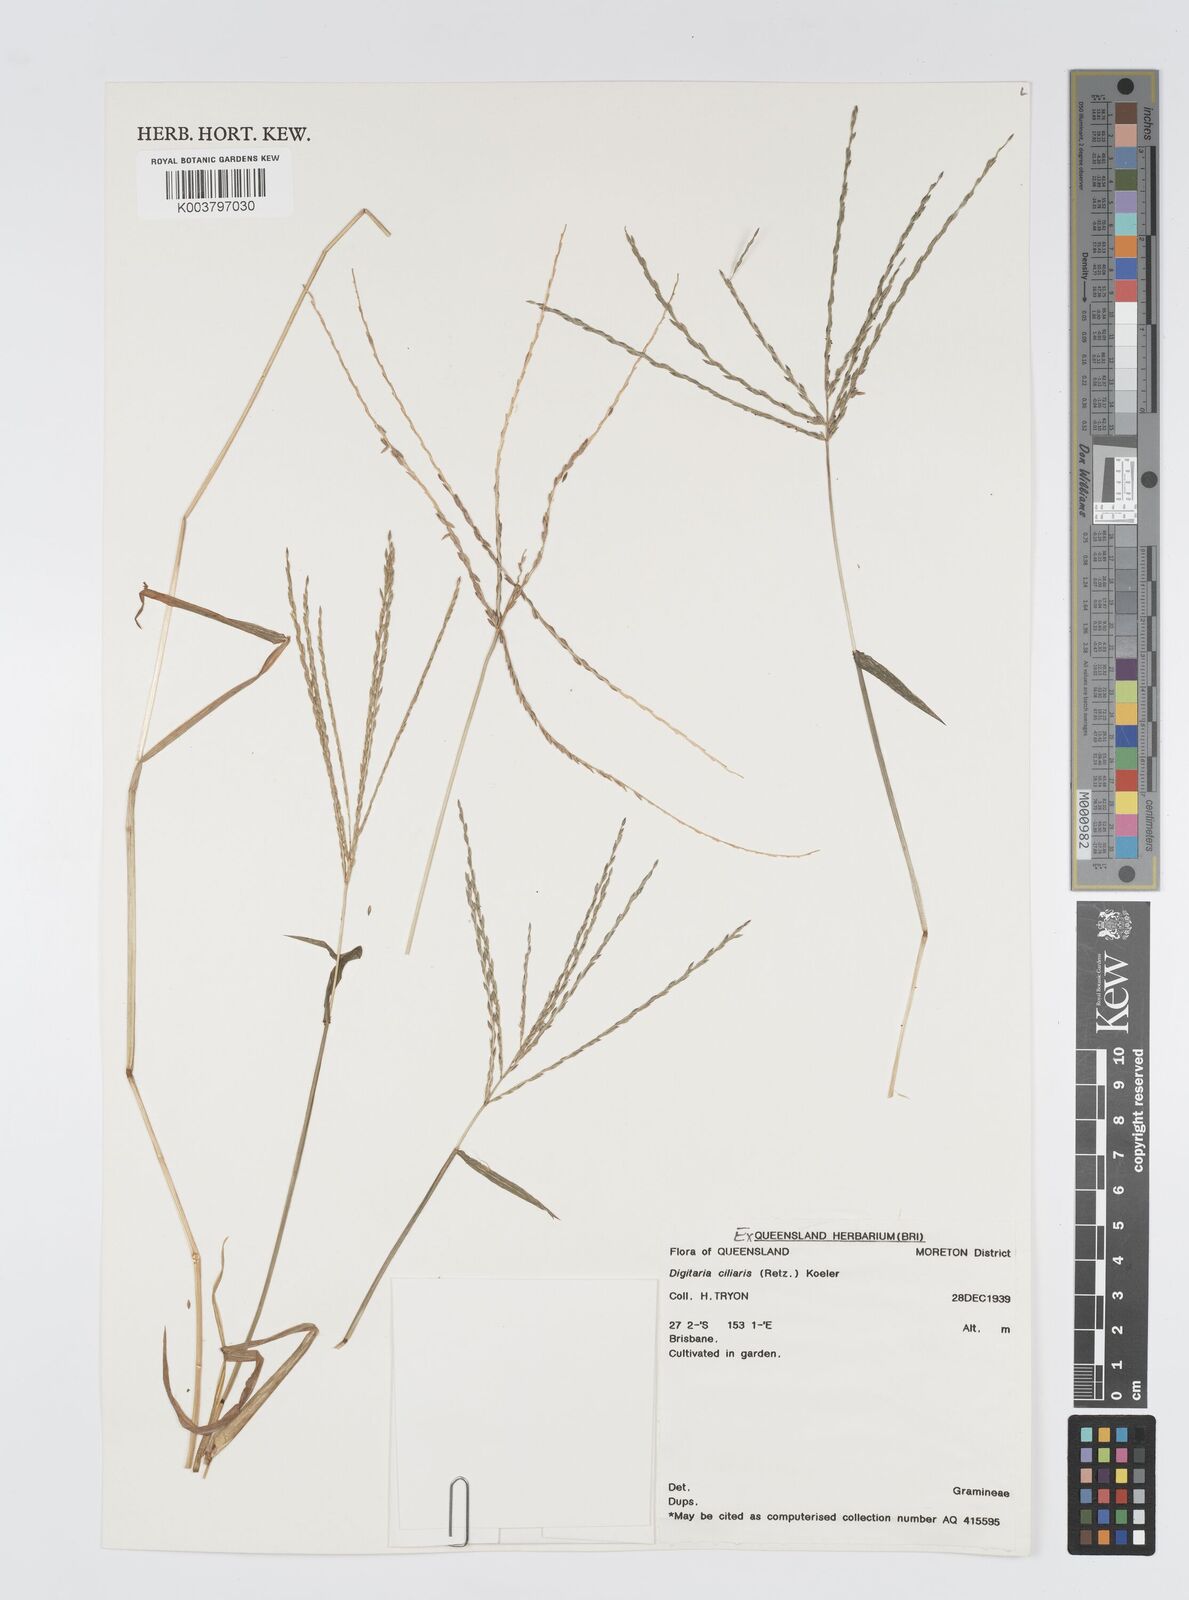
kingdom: Plantae
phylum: Tracheophyta
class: Liliopsida
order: Poales
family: Poaceae
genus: Digitaria
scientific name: Digitaria ciliaris
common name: Tropical finger-grass
